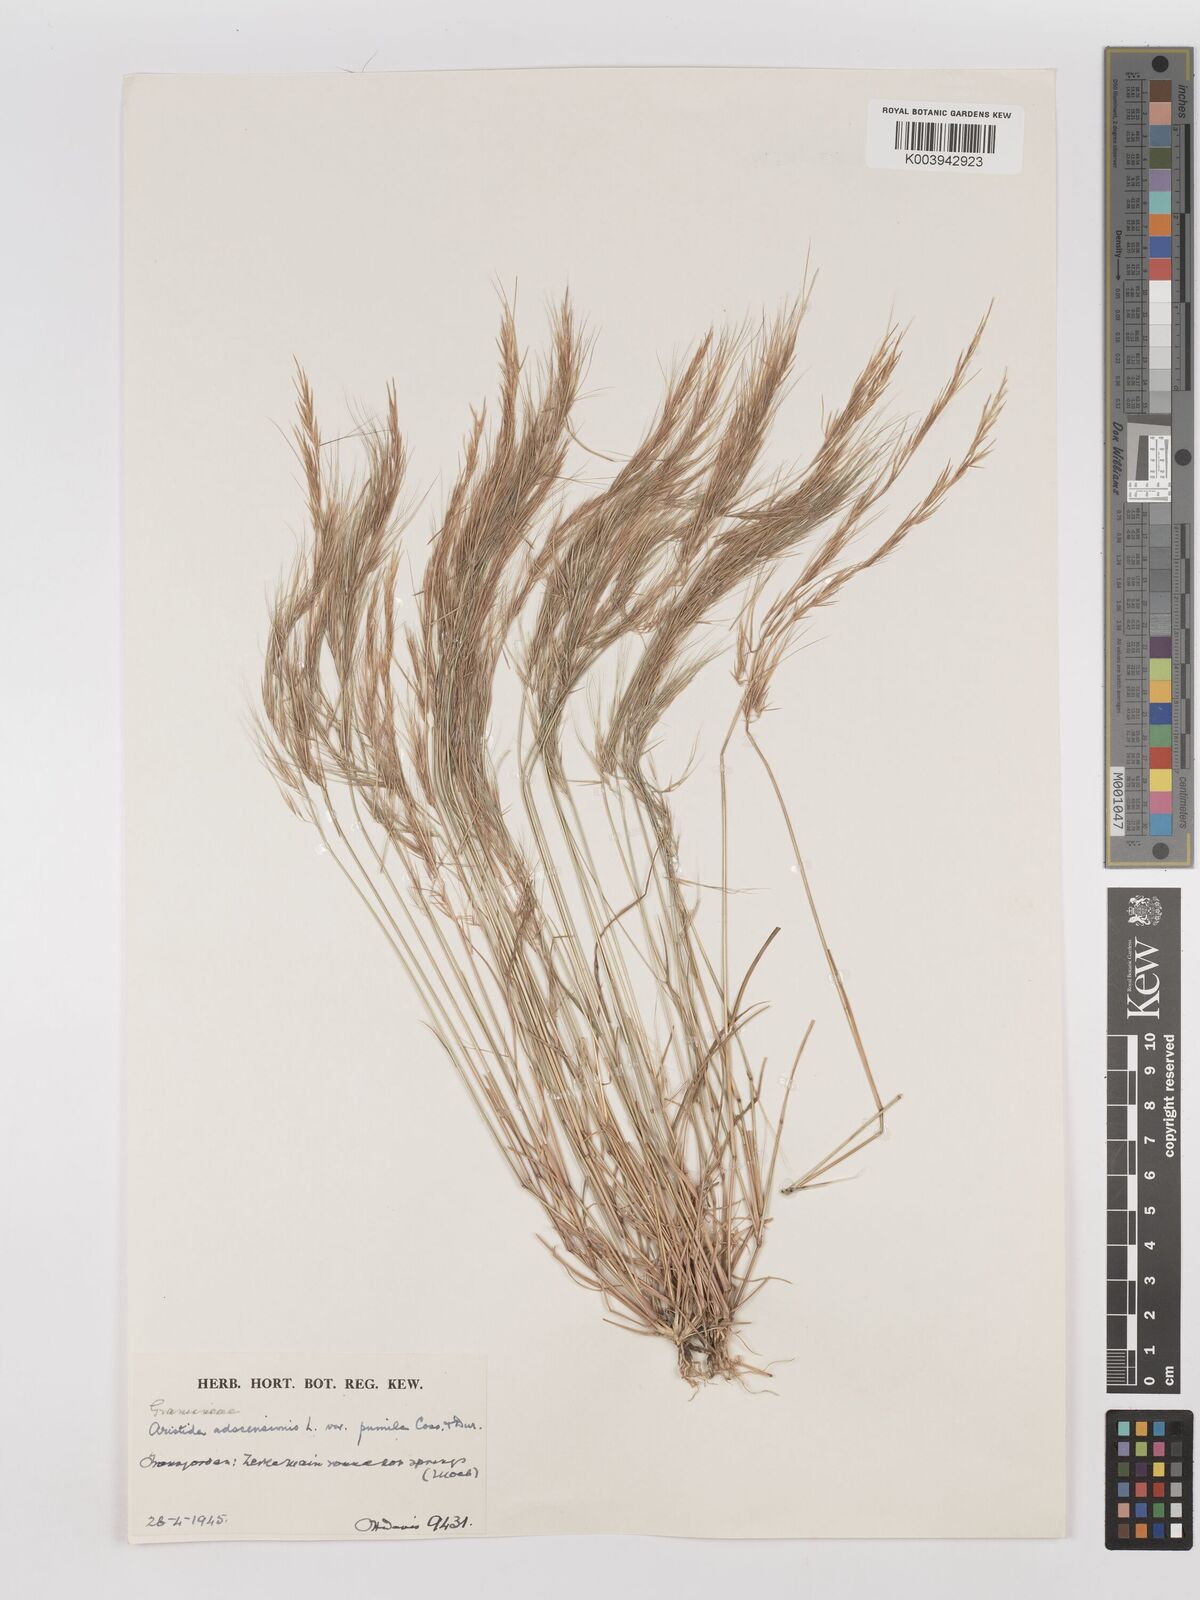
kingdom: Plantae
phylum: Tracheophyta
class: Liliopsida
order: Poales
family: Poaceae
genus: Aristida
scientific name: Aristida adscensionis
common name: Sixweeks threeawn
